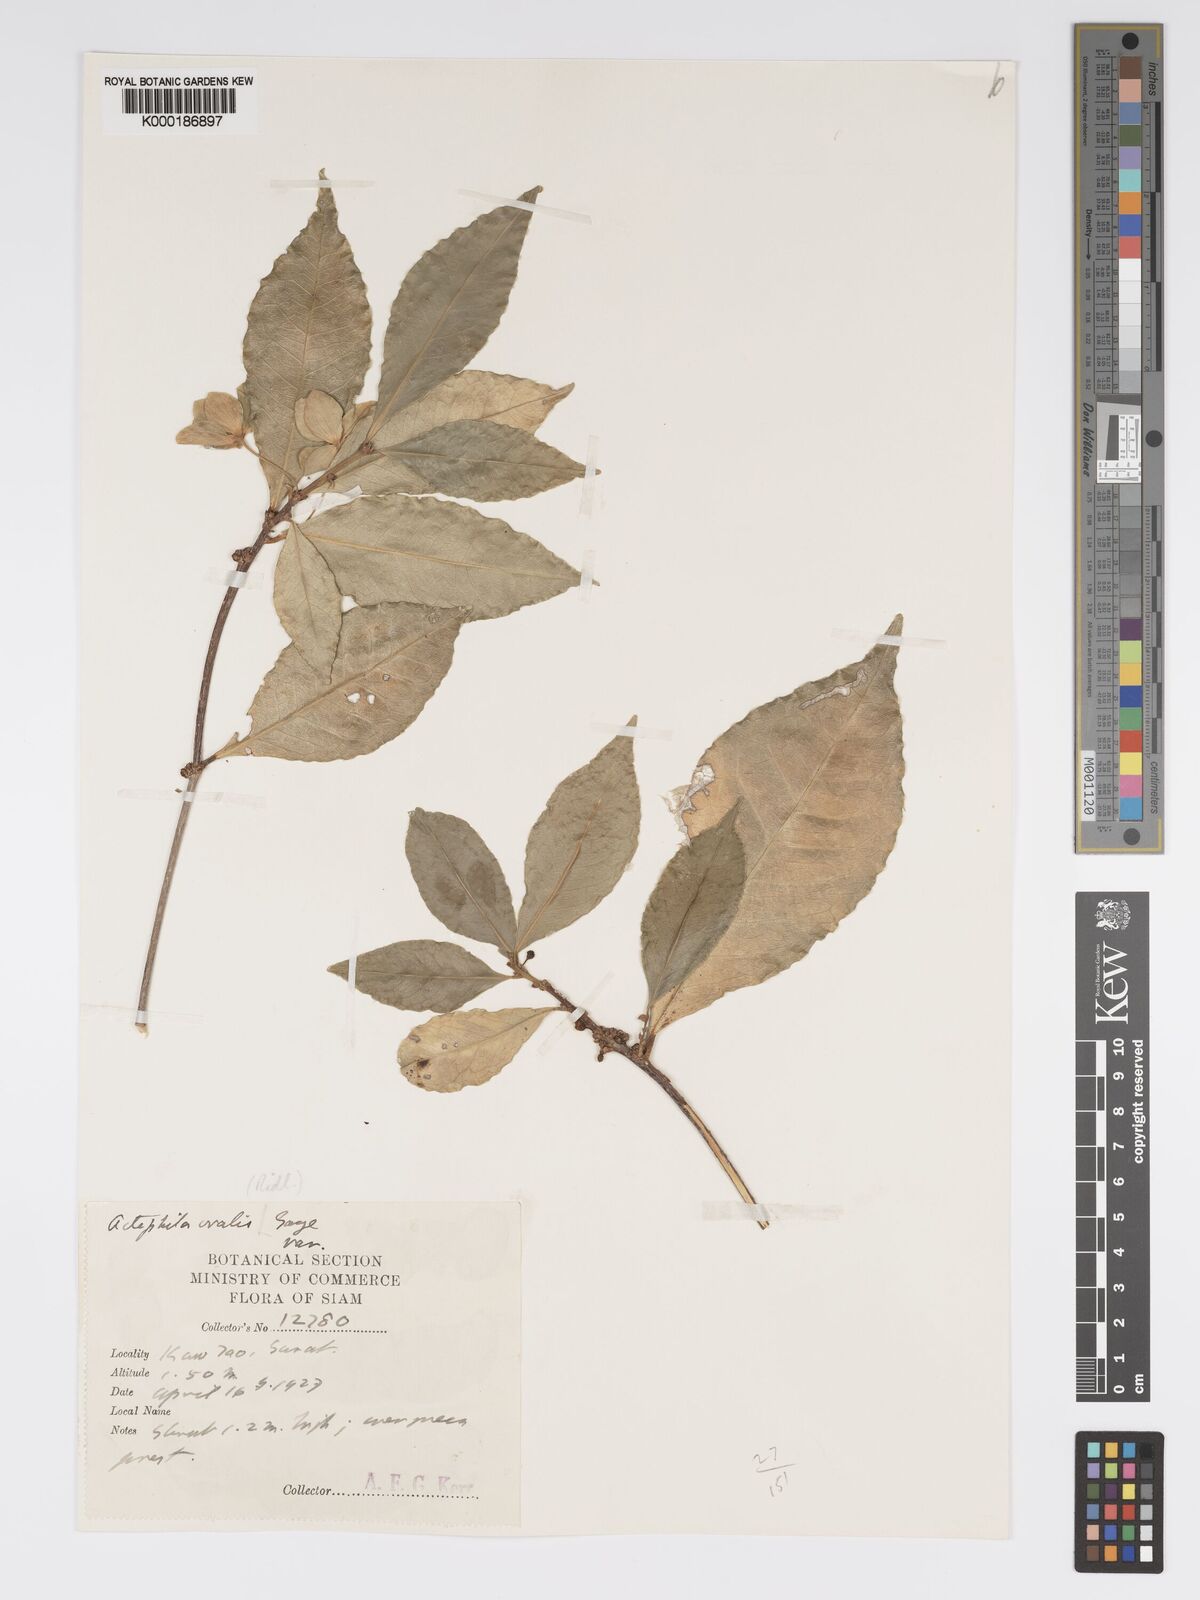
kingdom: Plantae
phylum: Tracheophyta
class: Magnoliopsida
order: Malpighiales
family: Phyllanthaceae
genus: Actephila
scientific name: Actephila ovalis
